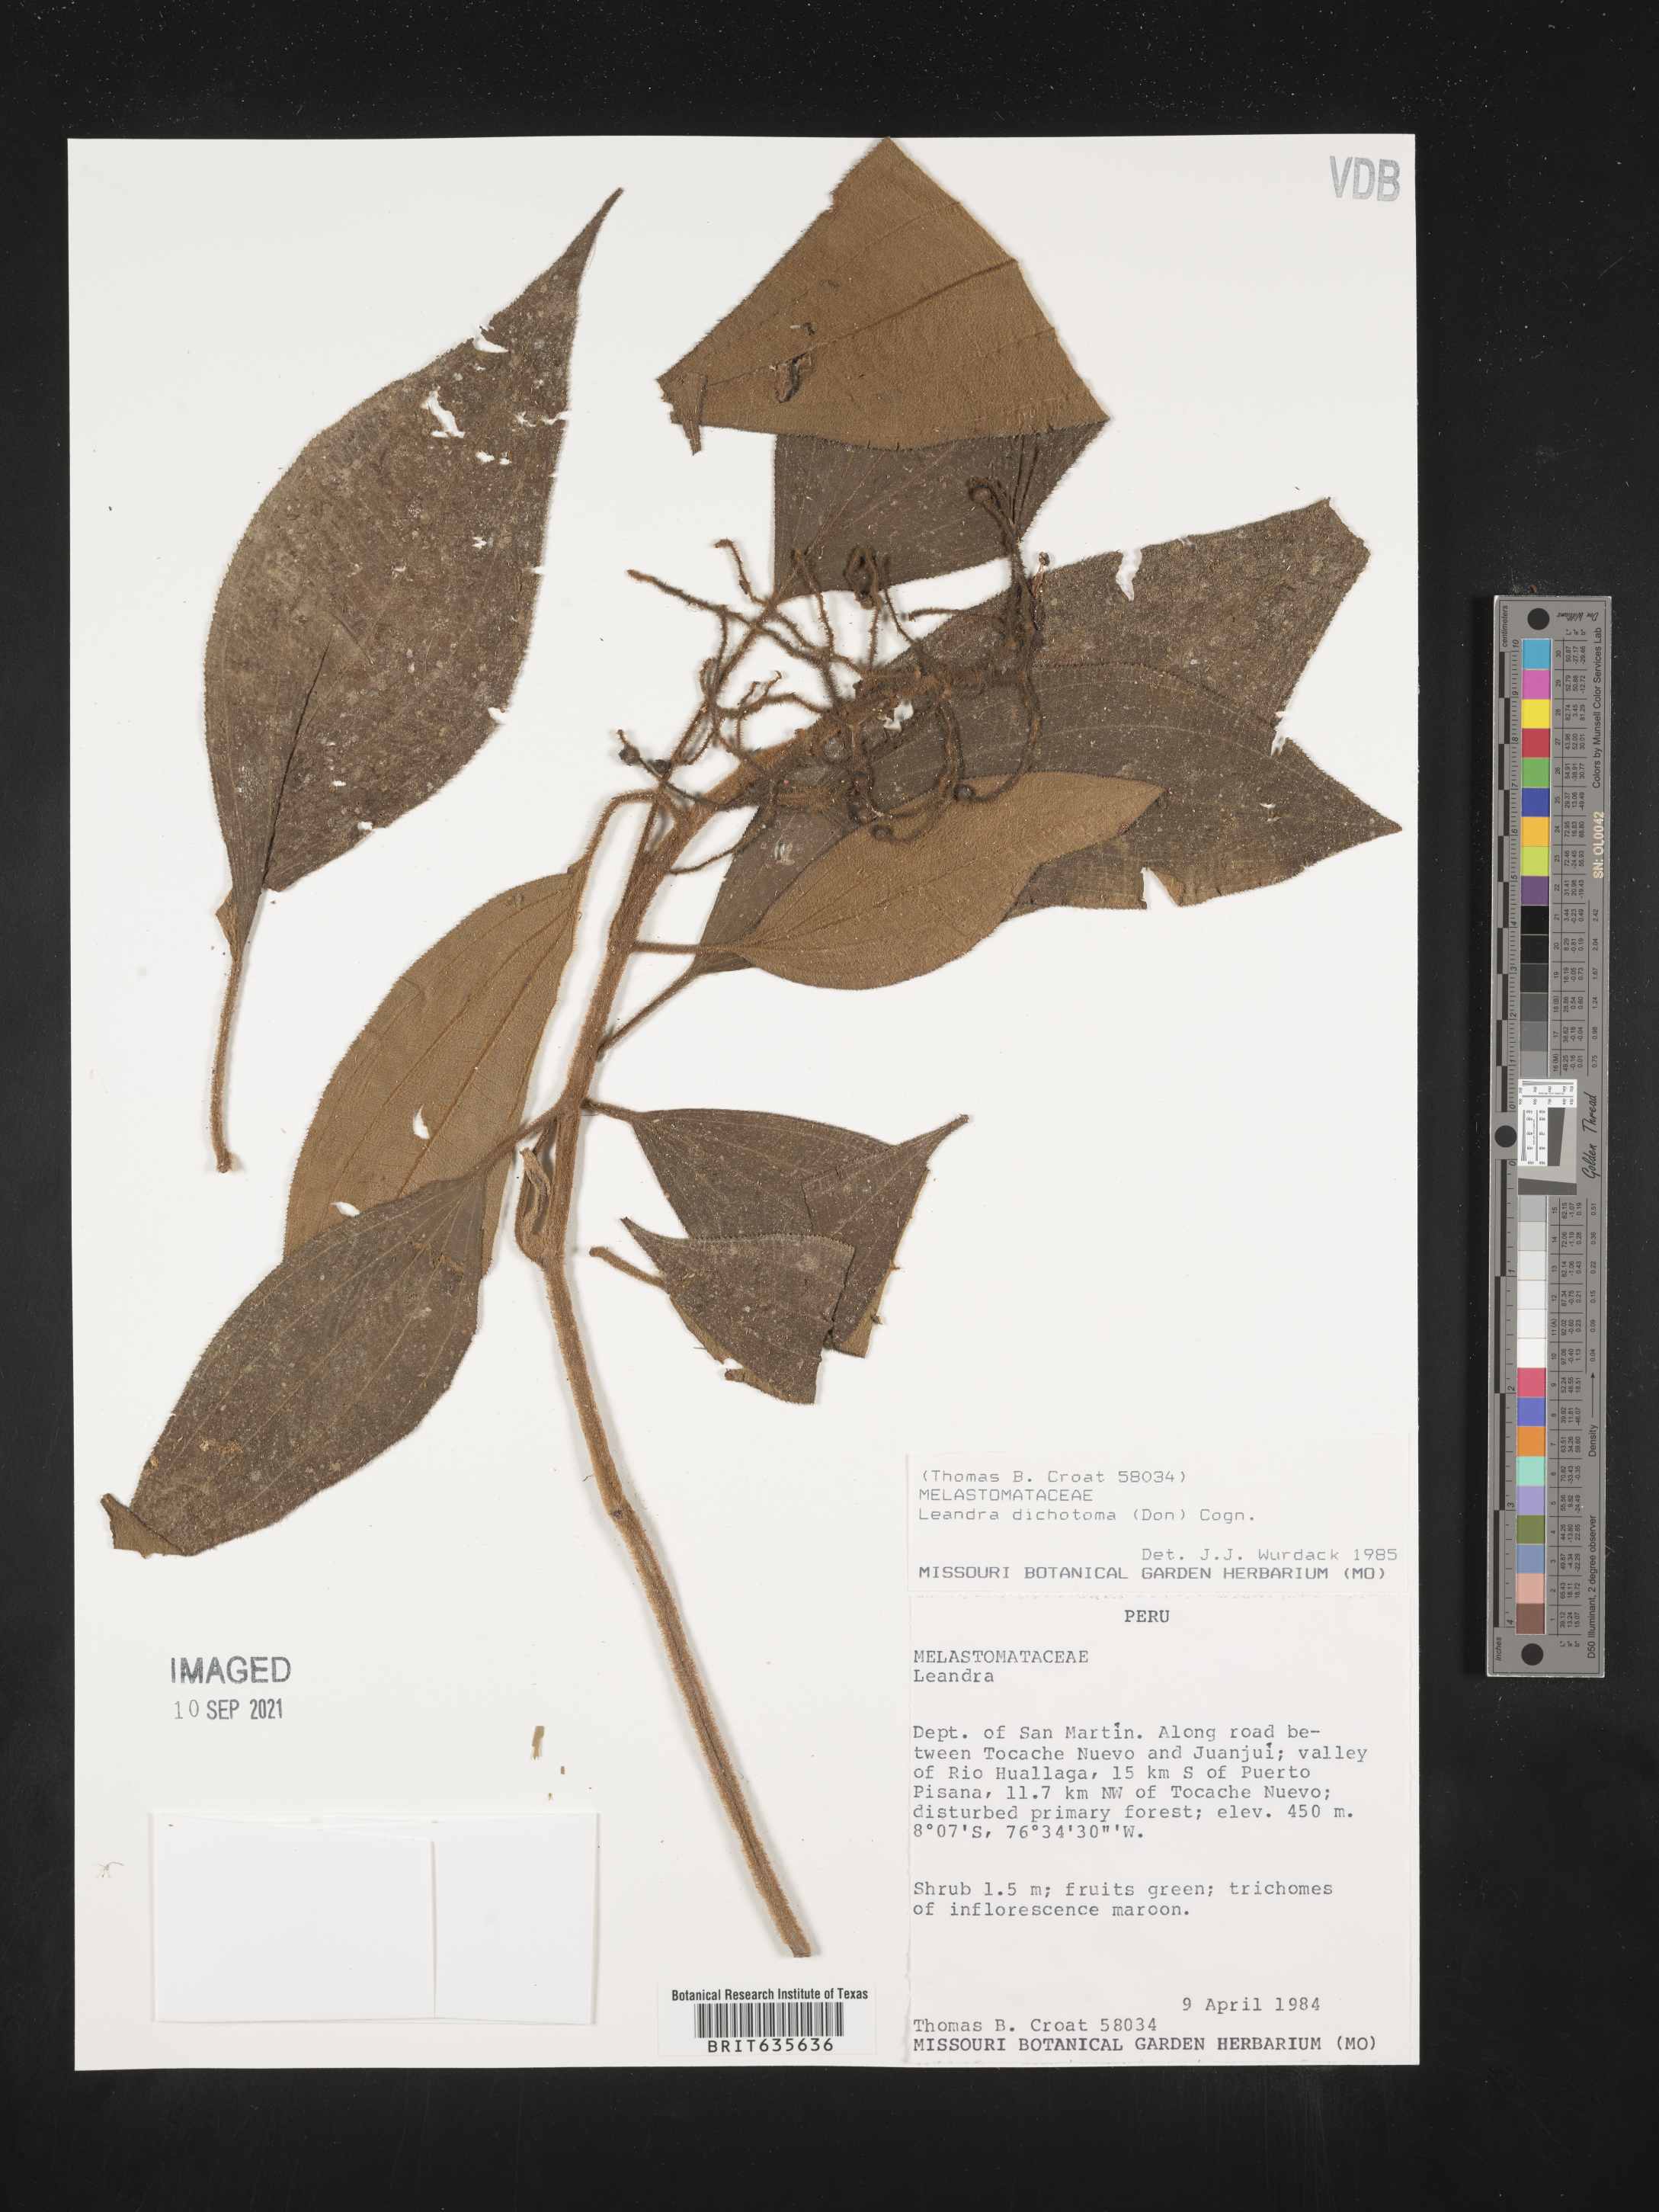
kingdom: Plantae
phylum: Tracheophyta
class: Magnoliopsida
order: Myrtales
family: Melastomataceae
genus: Miconia
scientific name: Miconia
